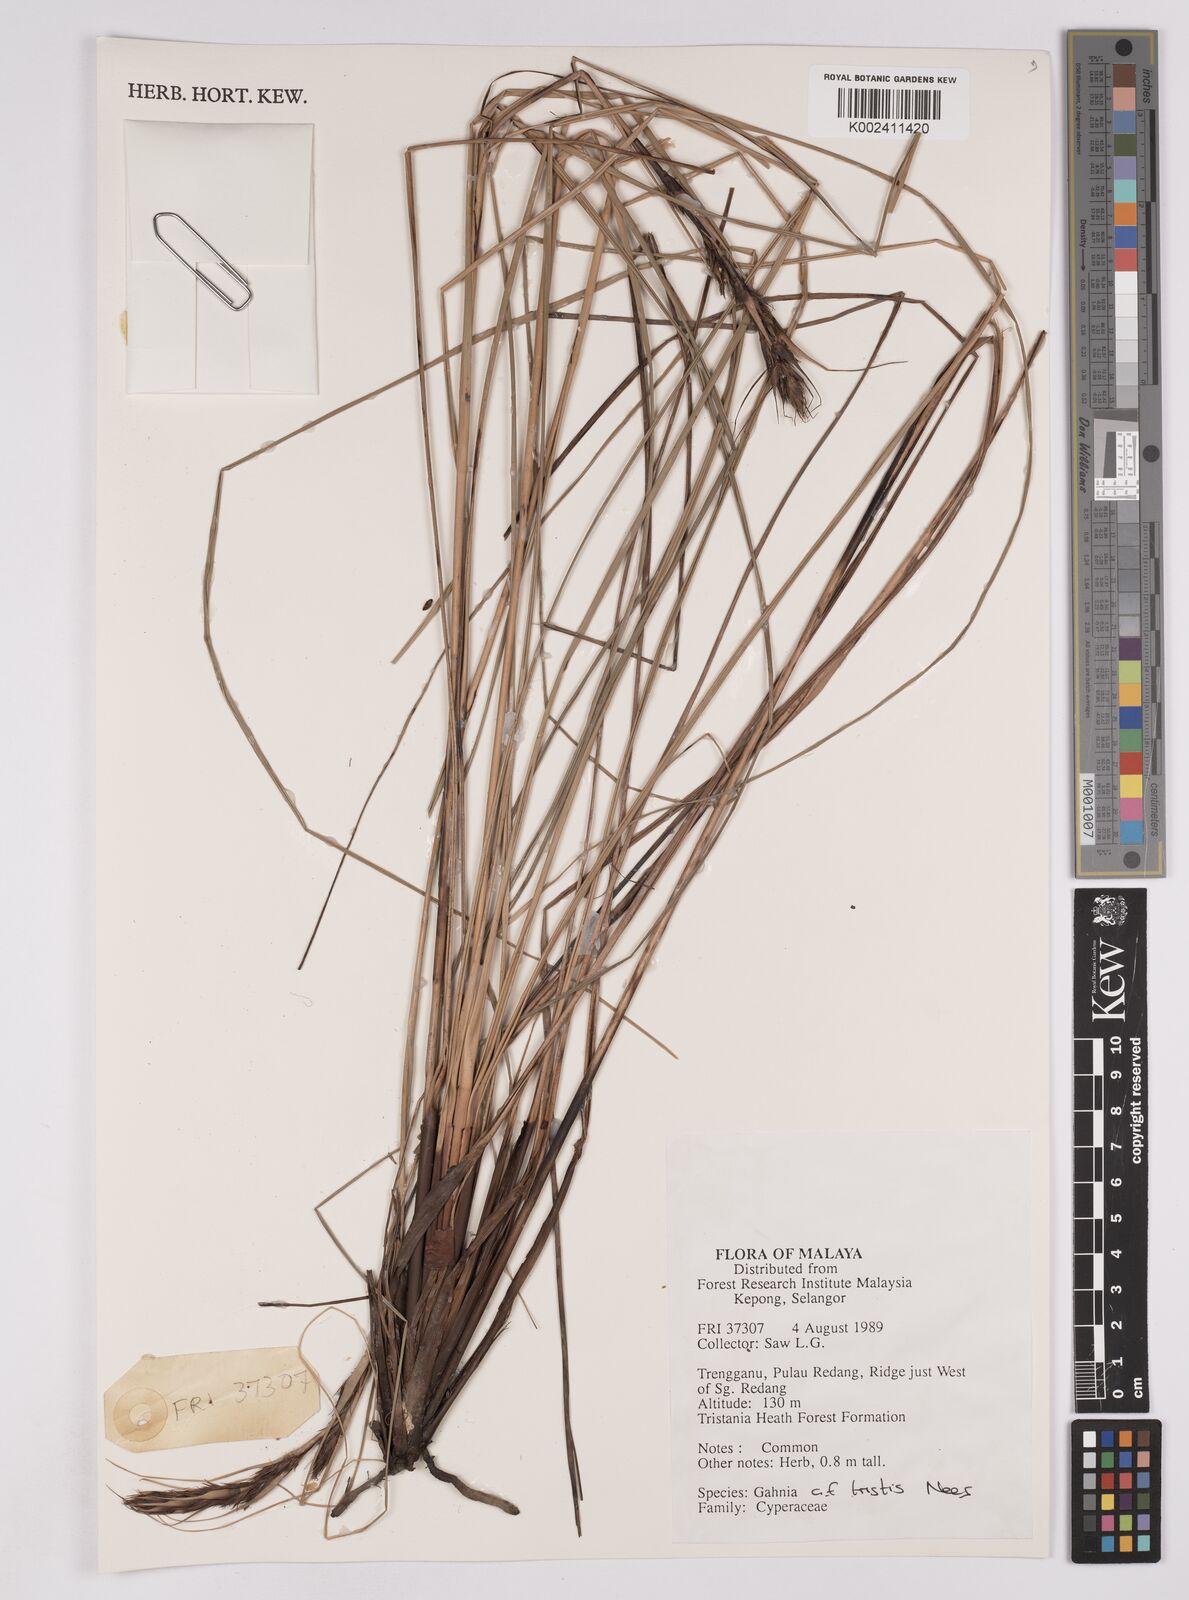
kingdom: Plantae
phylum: Tracheophyta
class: Liliopsida
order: Poales
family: Cyperaceae
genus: Gahnia
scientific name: Gahnia tristis
